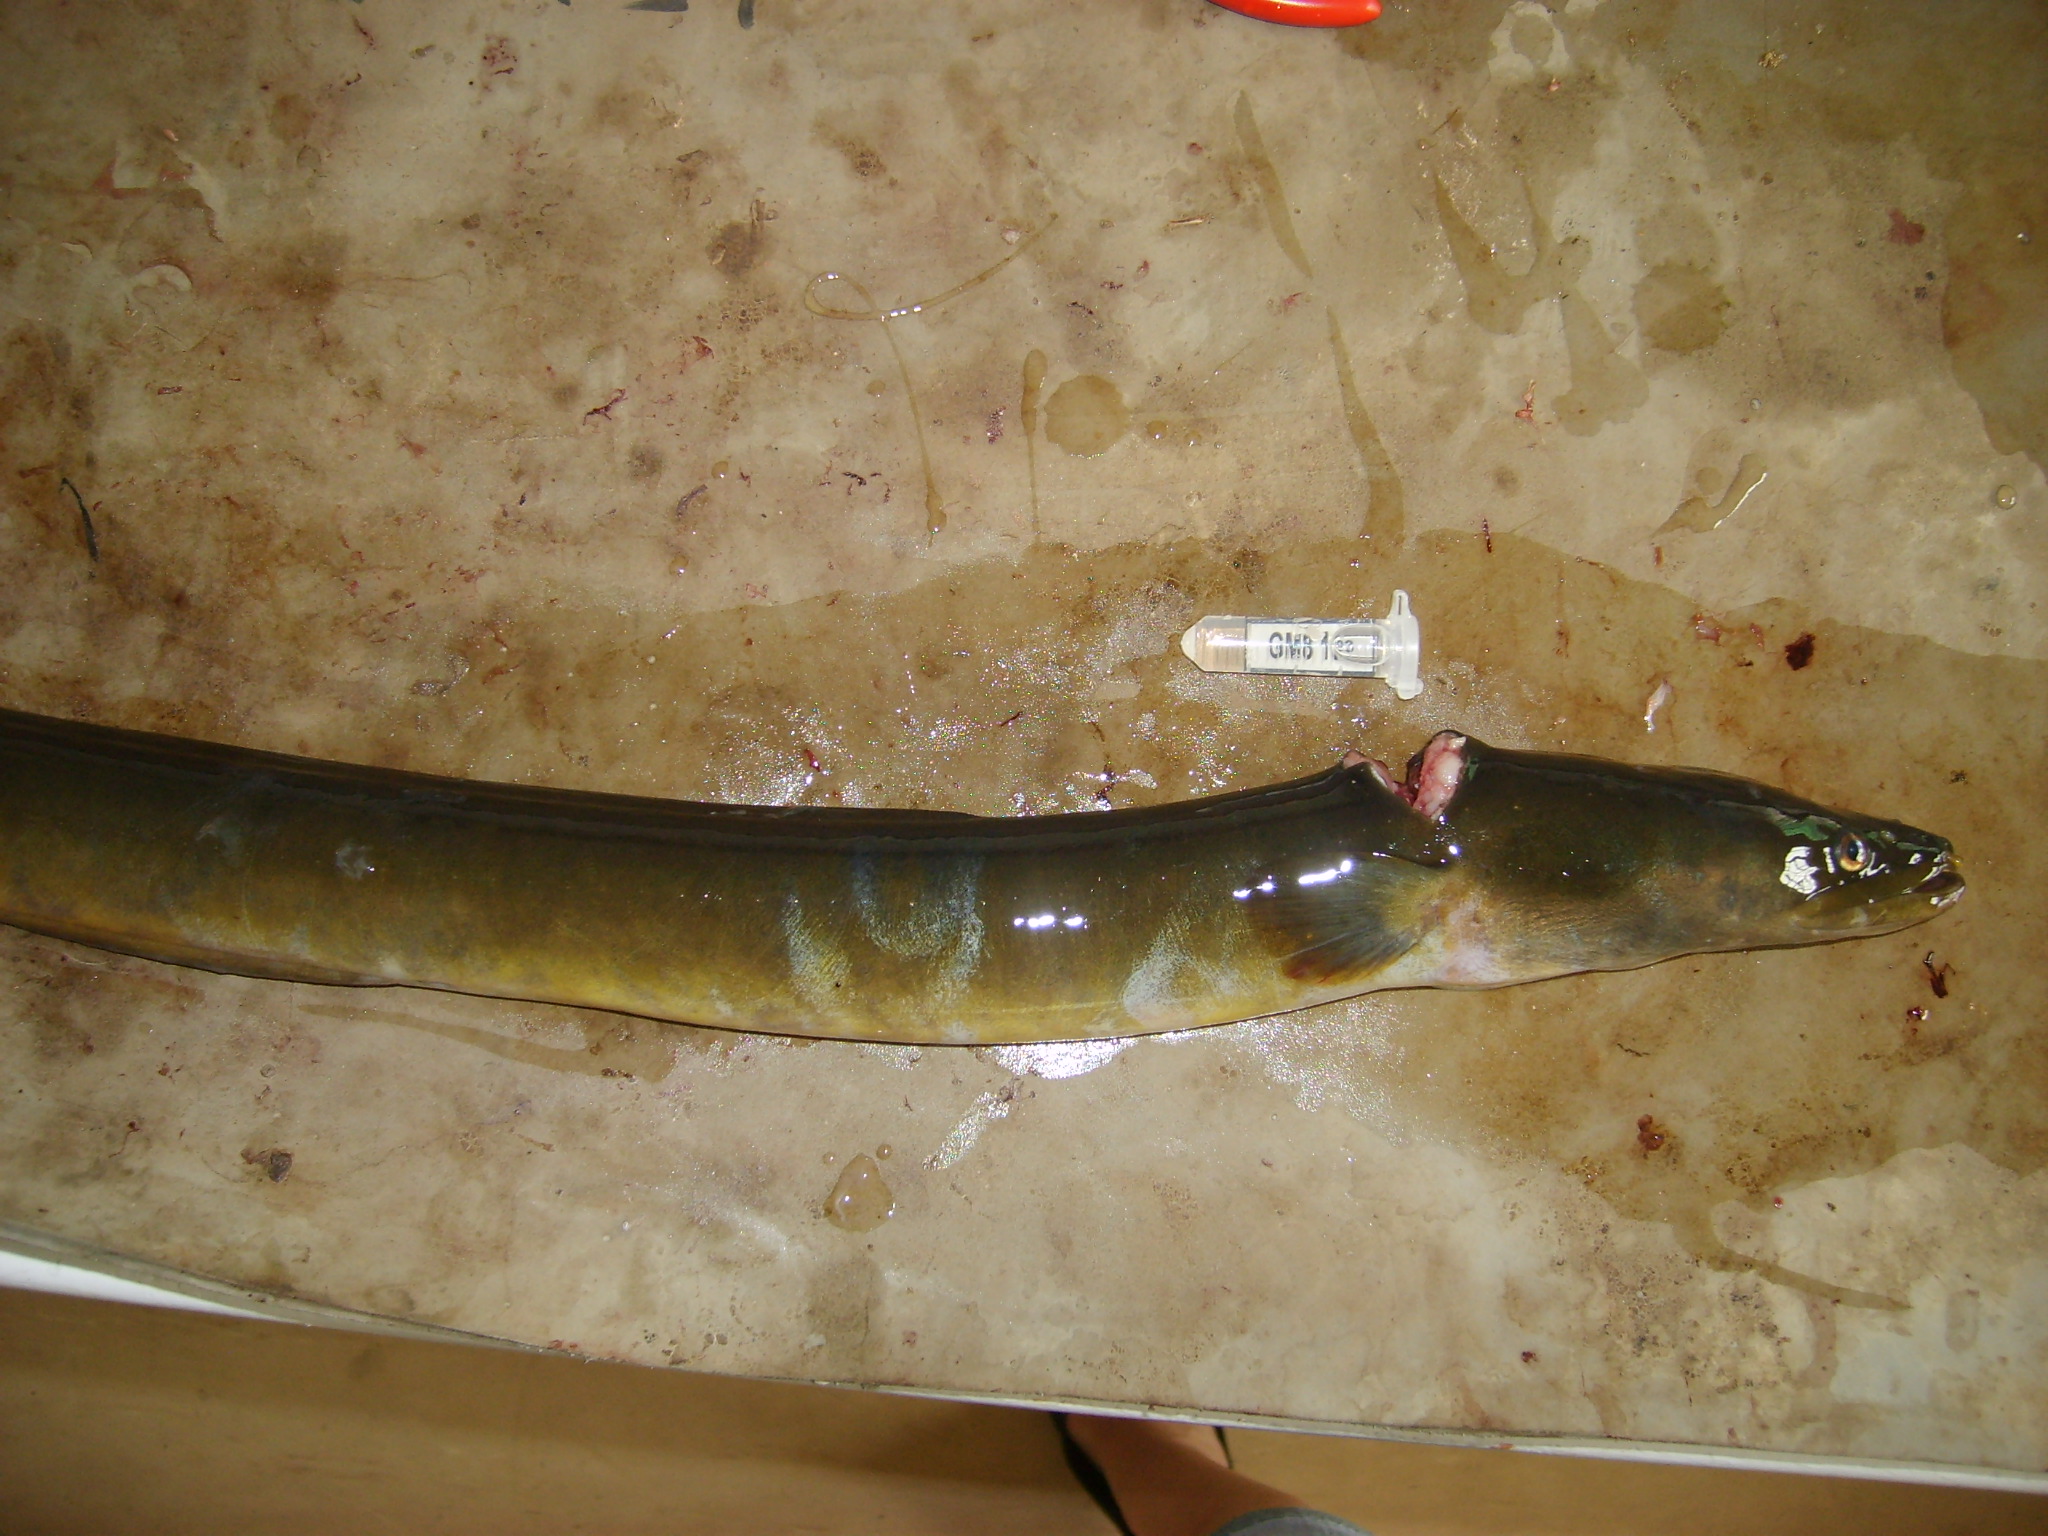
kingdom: Animalia
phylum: Chordata
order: Anguilliformes
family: Anguillidae
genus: Anguilla
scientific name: Anguilla mossambica
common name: African longfin eel
